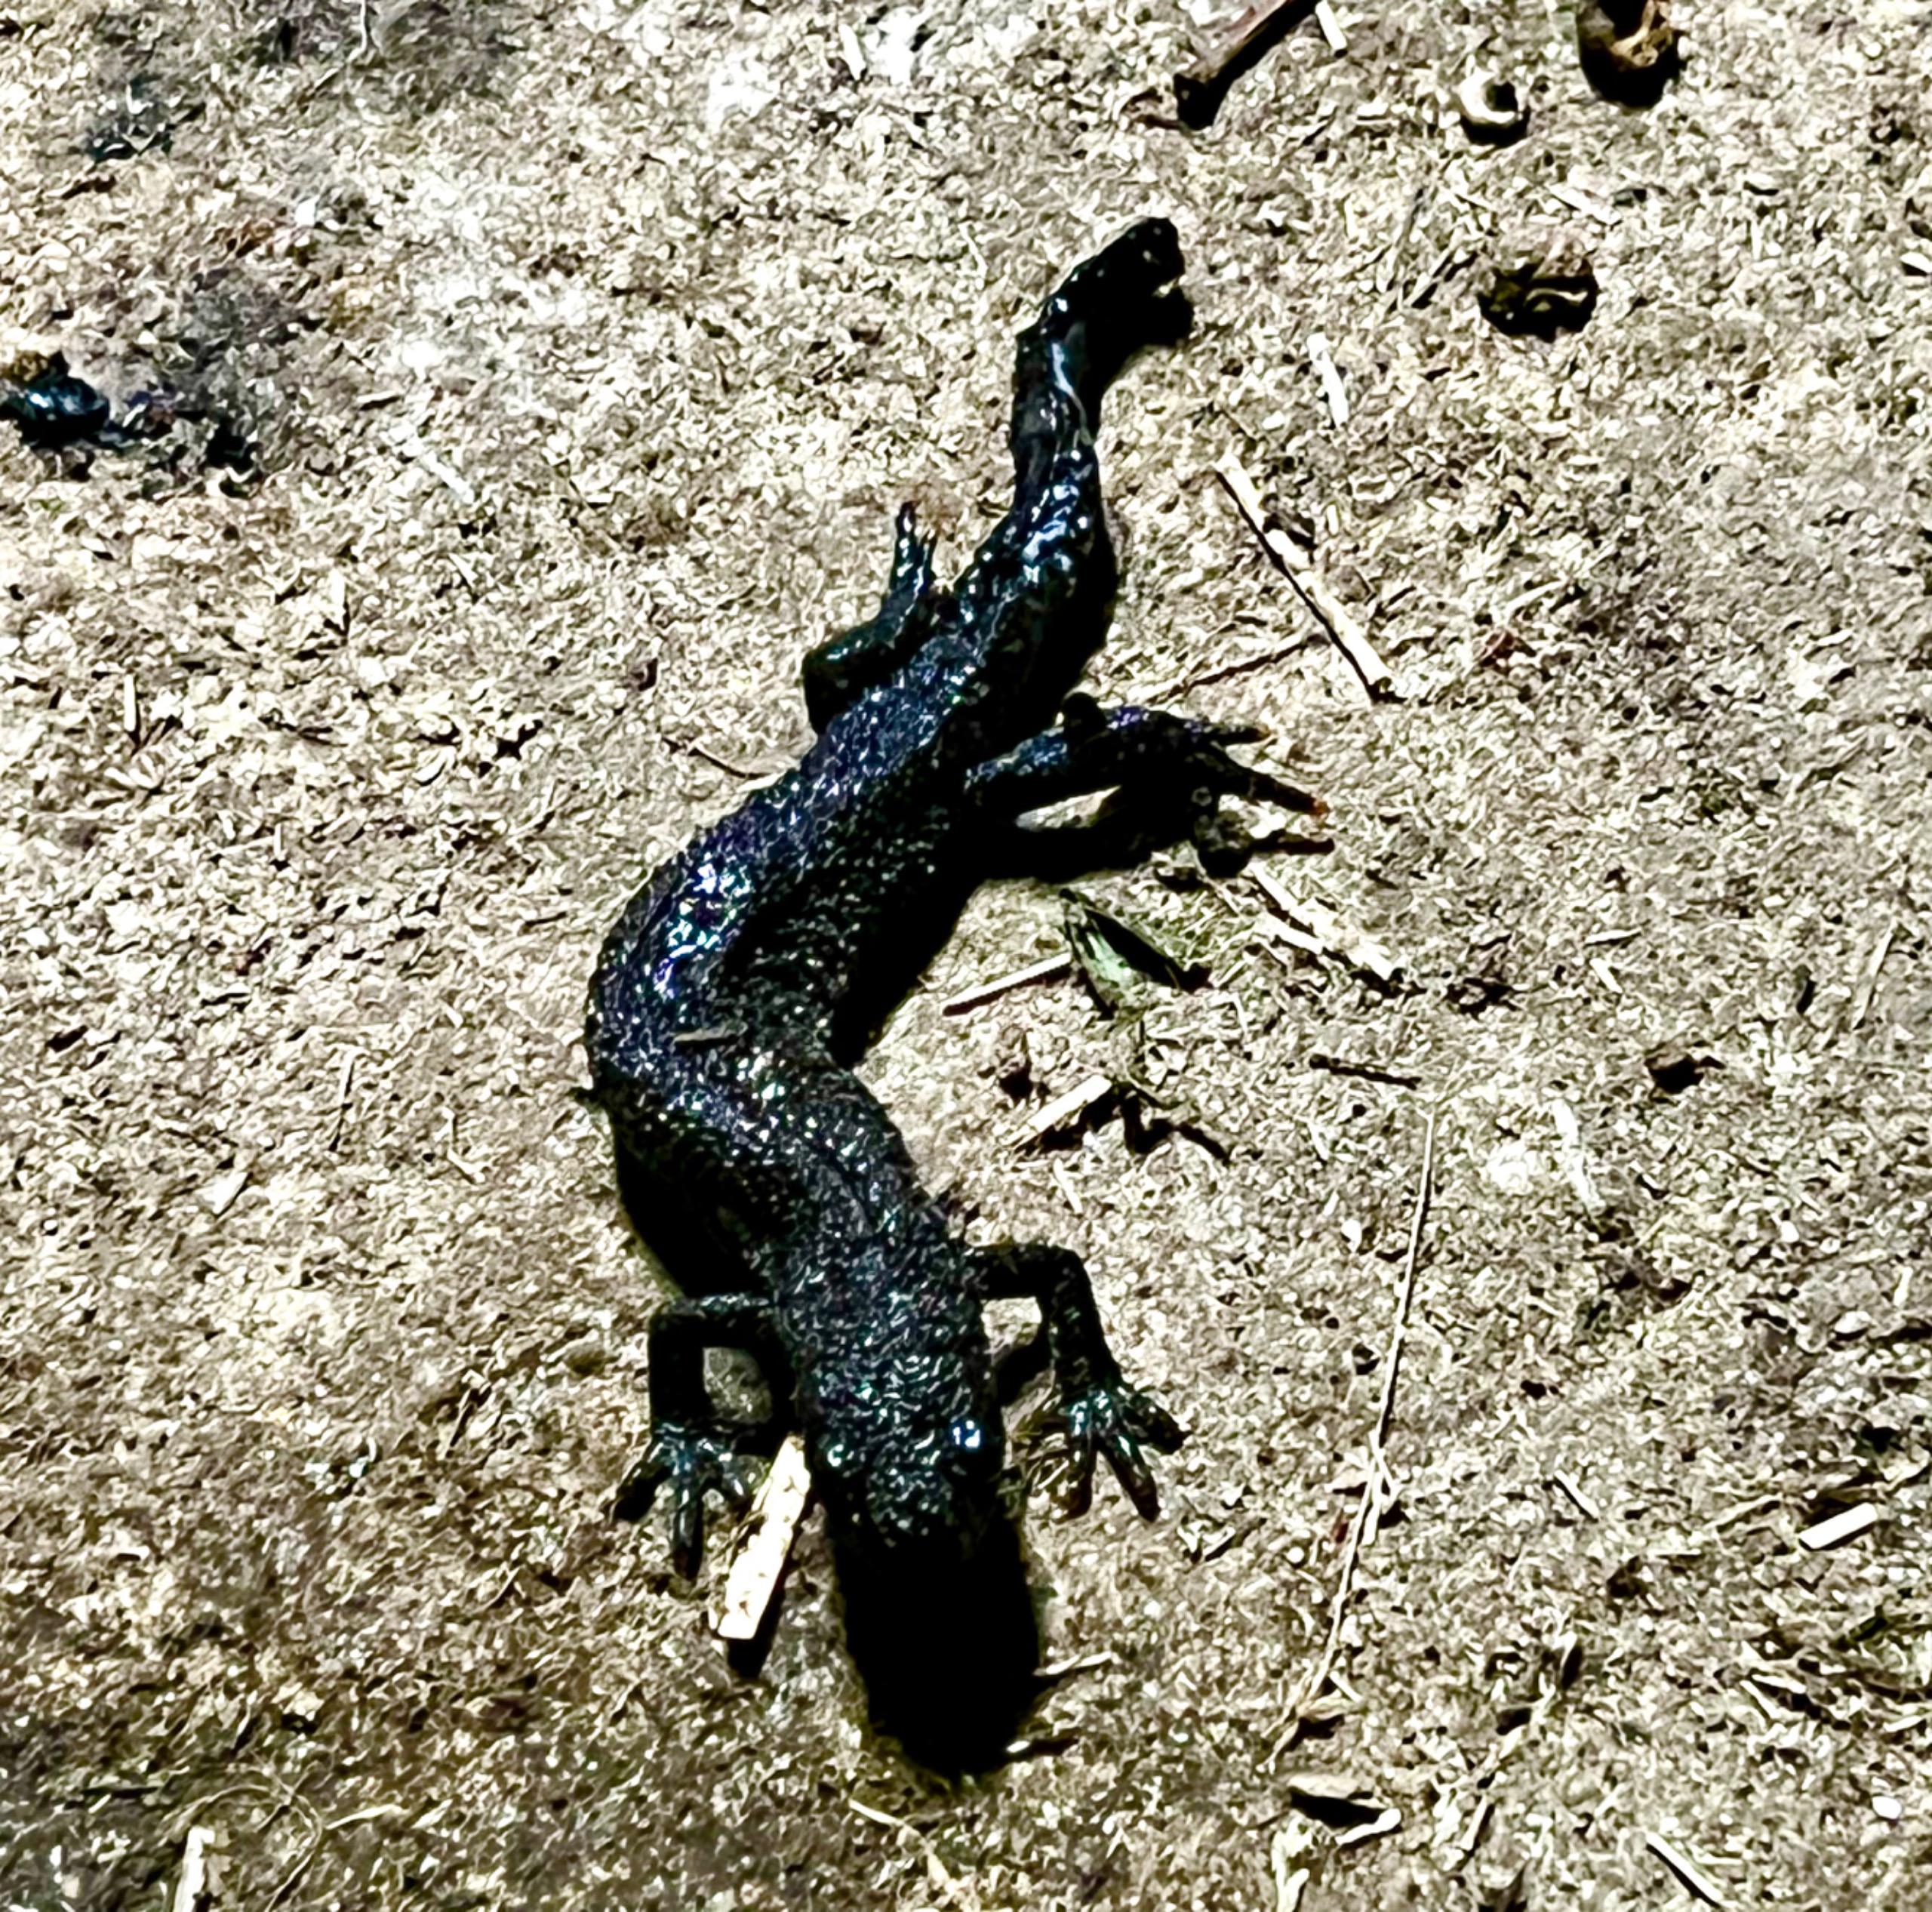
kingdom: Animalia
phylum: Chordata
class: Amphibia
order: Caudata
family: Salamandridae
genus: Triturus
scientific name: Triturus cristatus
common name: Stor vandsalamander
